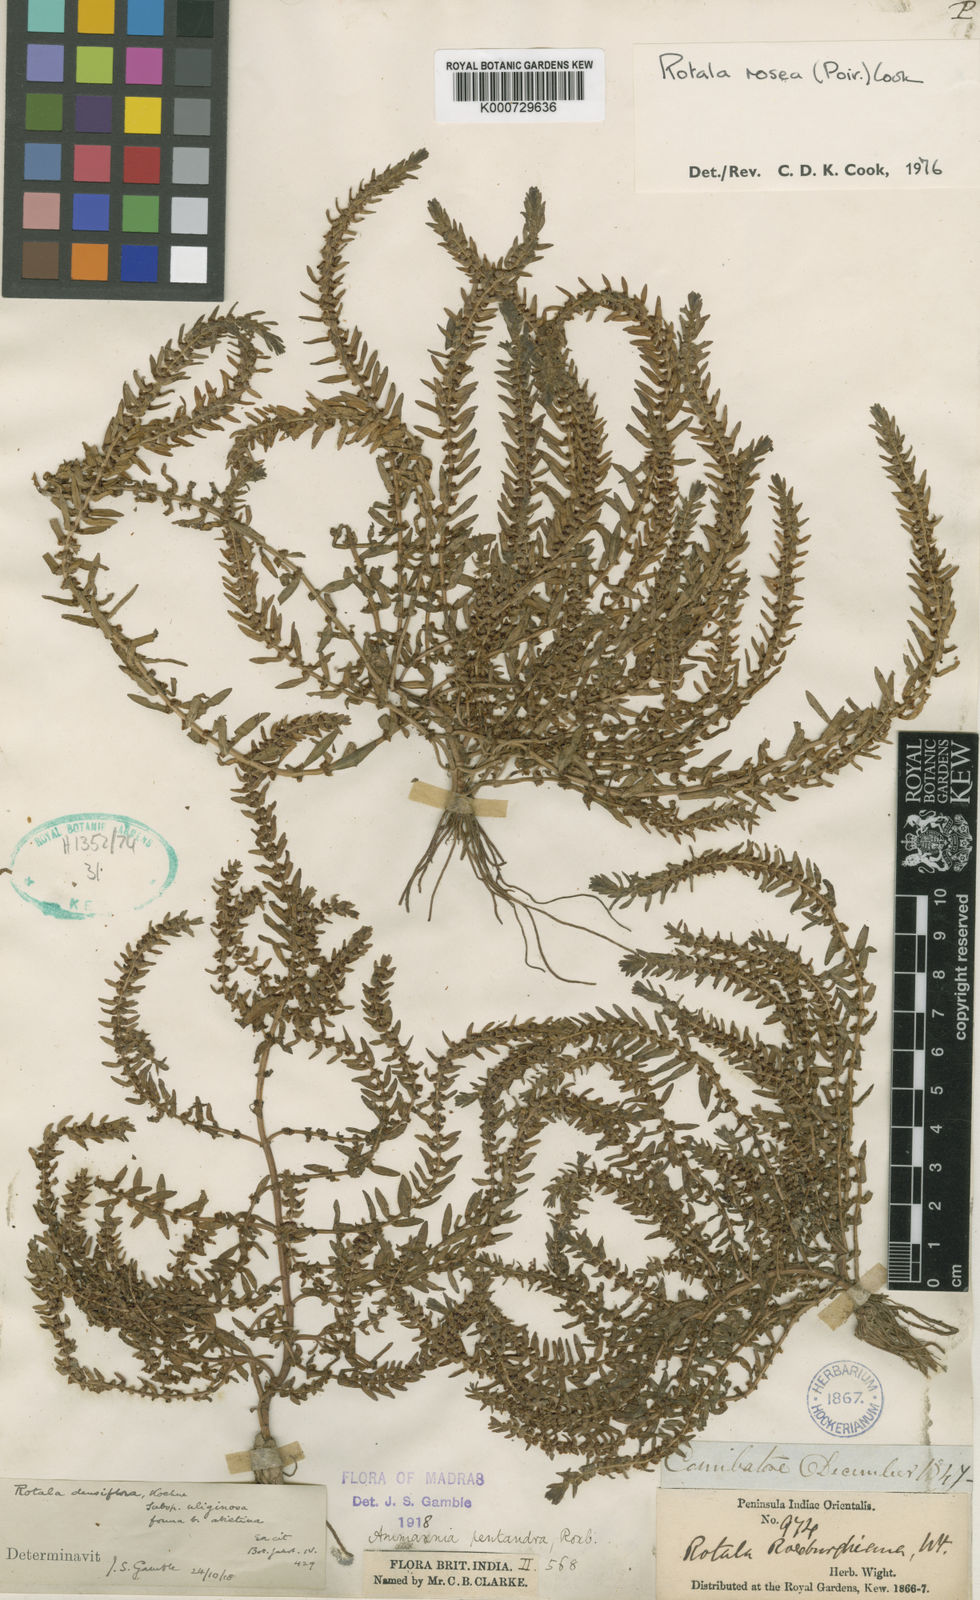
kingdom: Plantae
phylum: Tracheophyta
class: Magnoliopsida
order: Myrtales
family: Lythraceae
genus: Rotala
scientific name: Rotala densiflora
